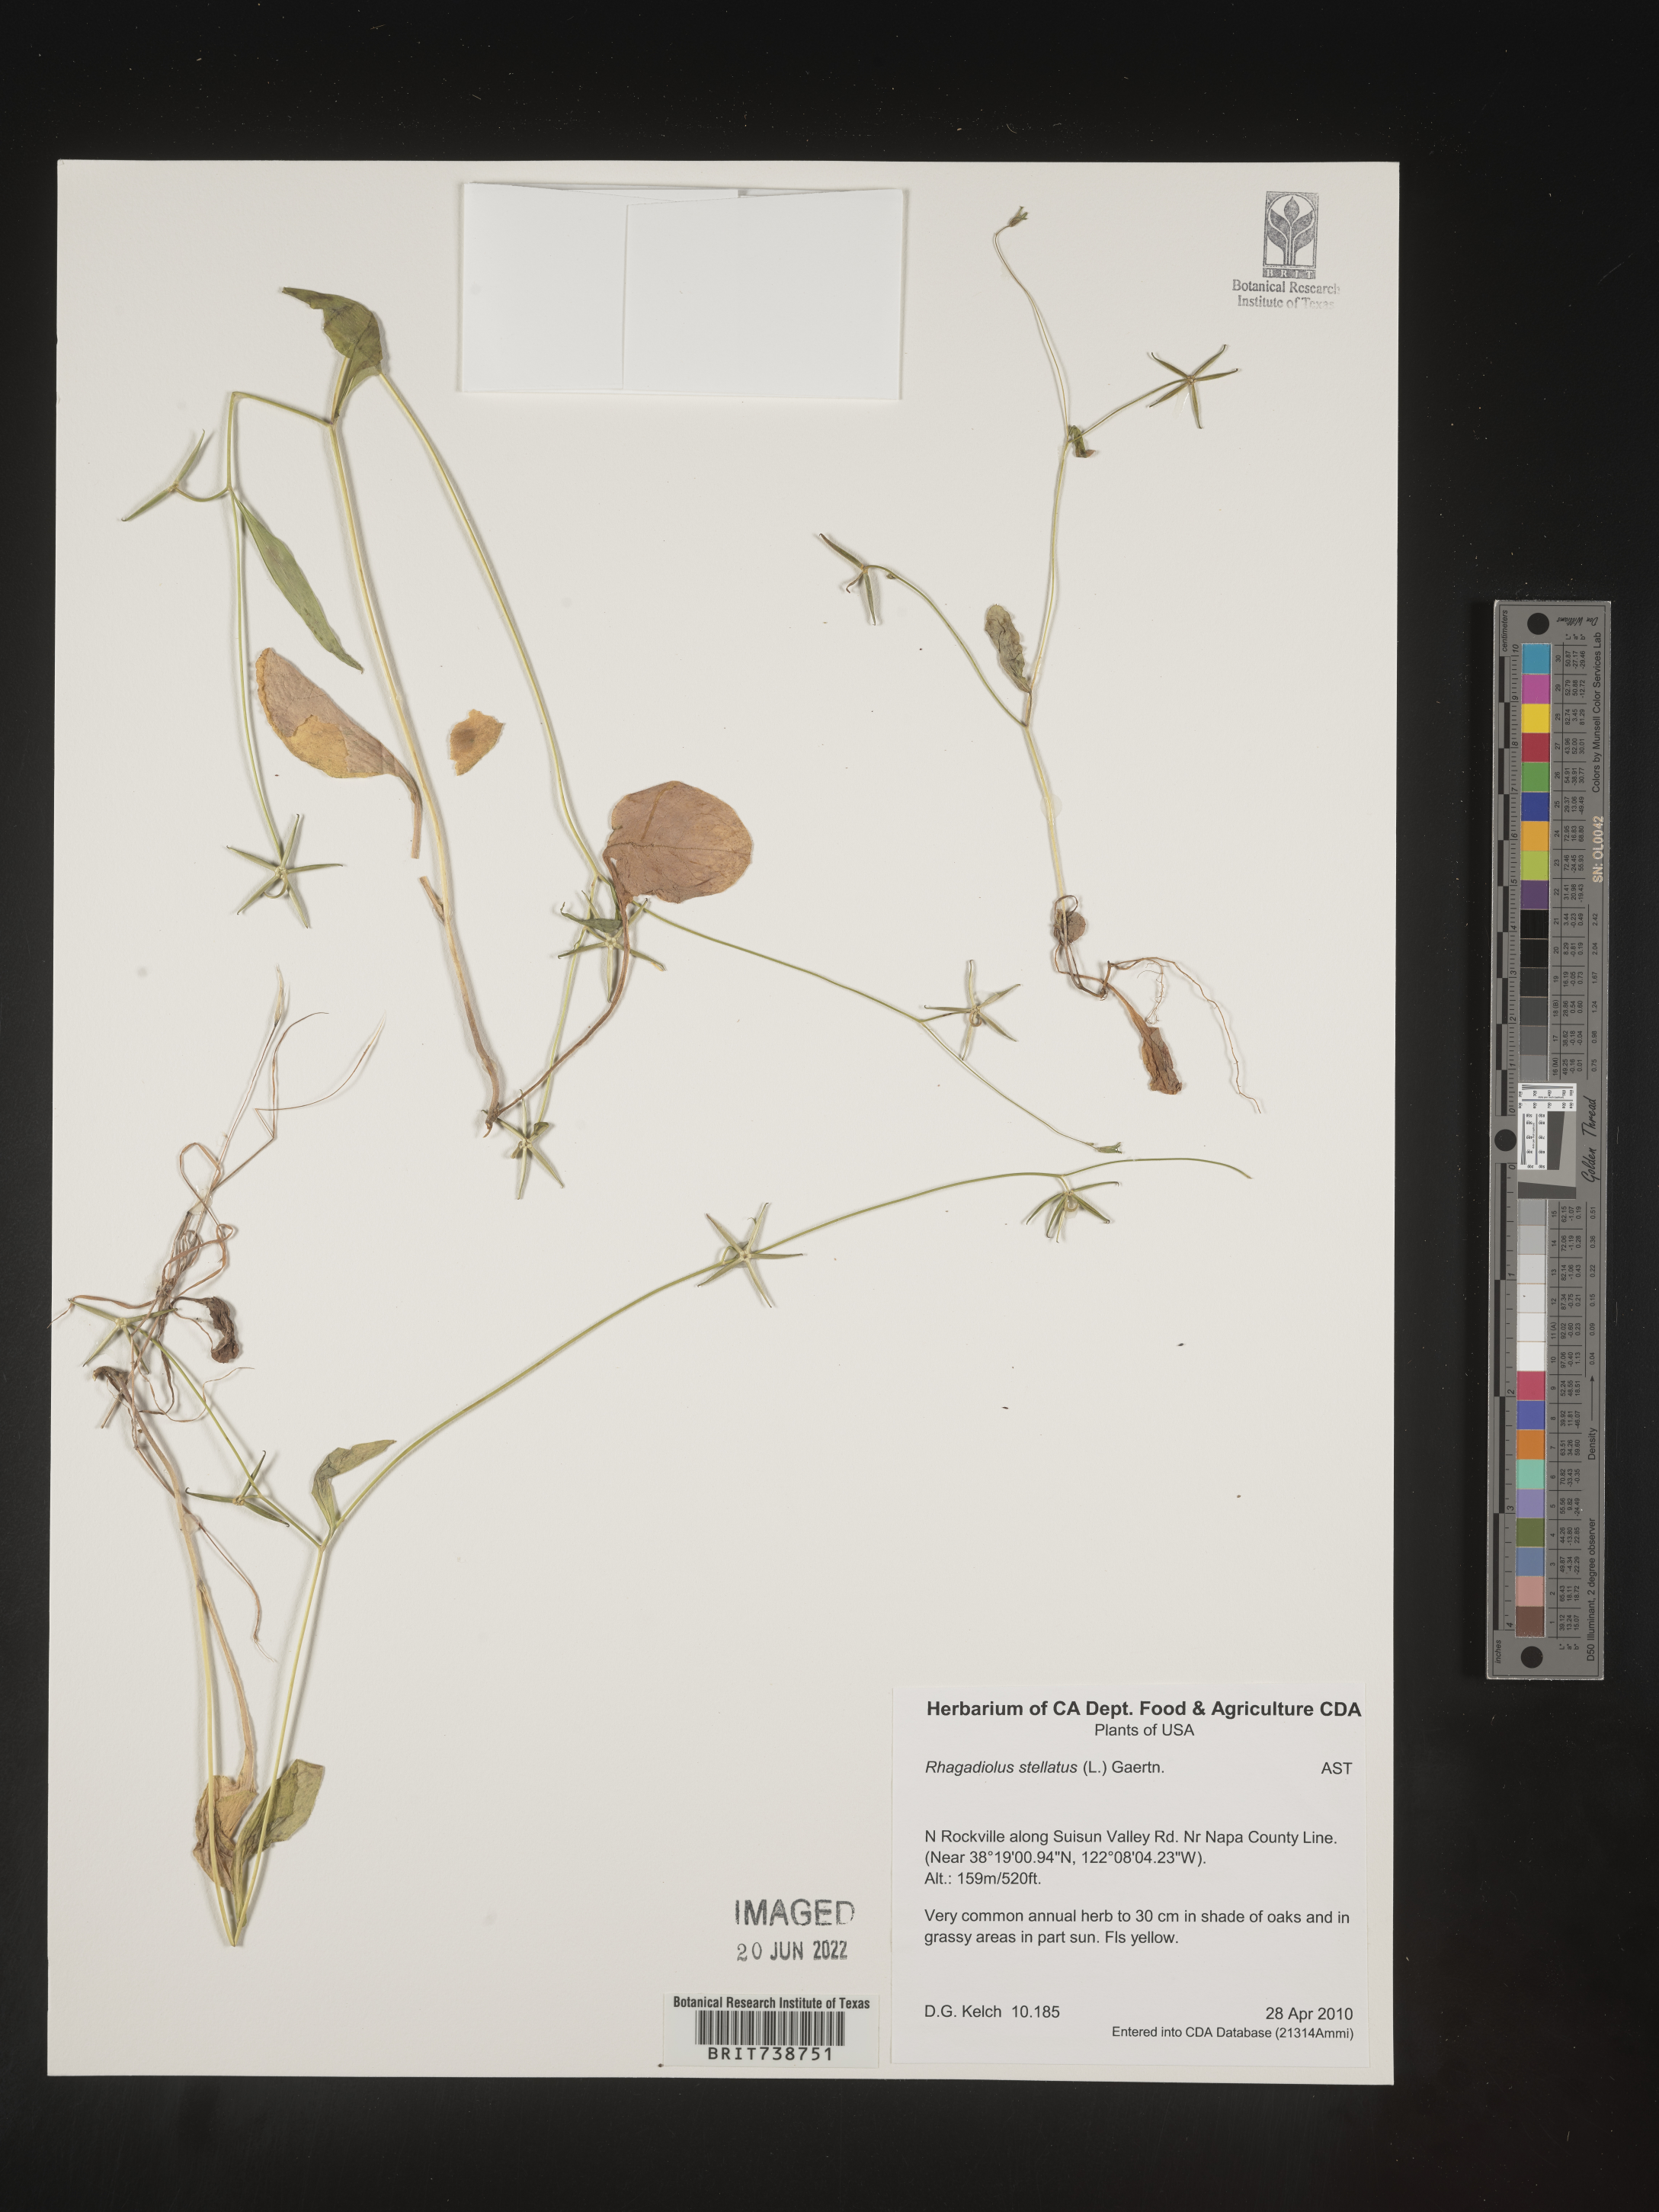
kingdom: Plantae
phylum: Tracheophyta
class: Magnoliopsida
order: Asterales
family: Asteraceae
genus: Rhagadiolus
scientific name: Rhagadiolus
